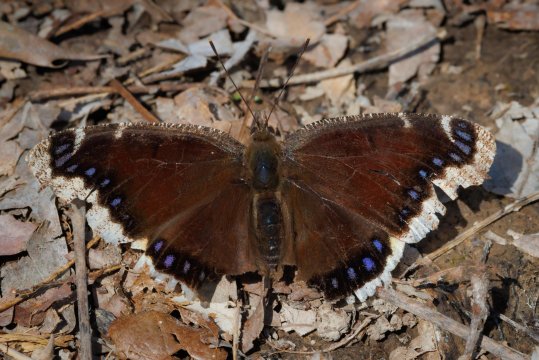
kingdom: Animalia
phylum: Arthropoda
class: Insecta
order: Lepidoptera
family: Nymphalidae
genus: Nymphalis
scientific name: Nymphalis antiopa
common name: Mourning Cloak
